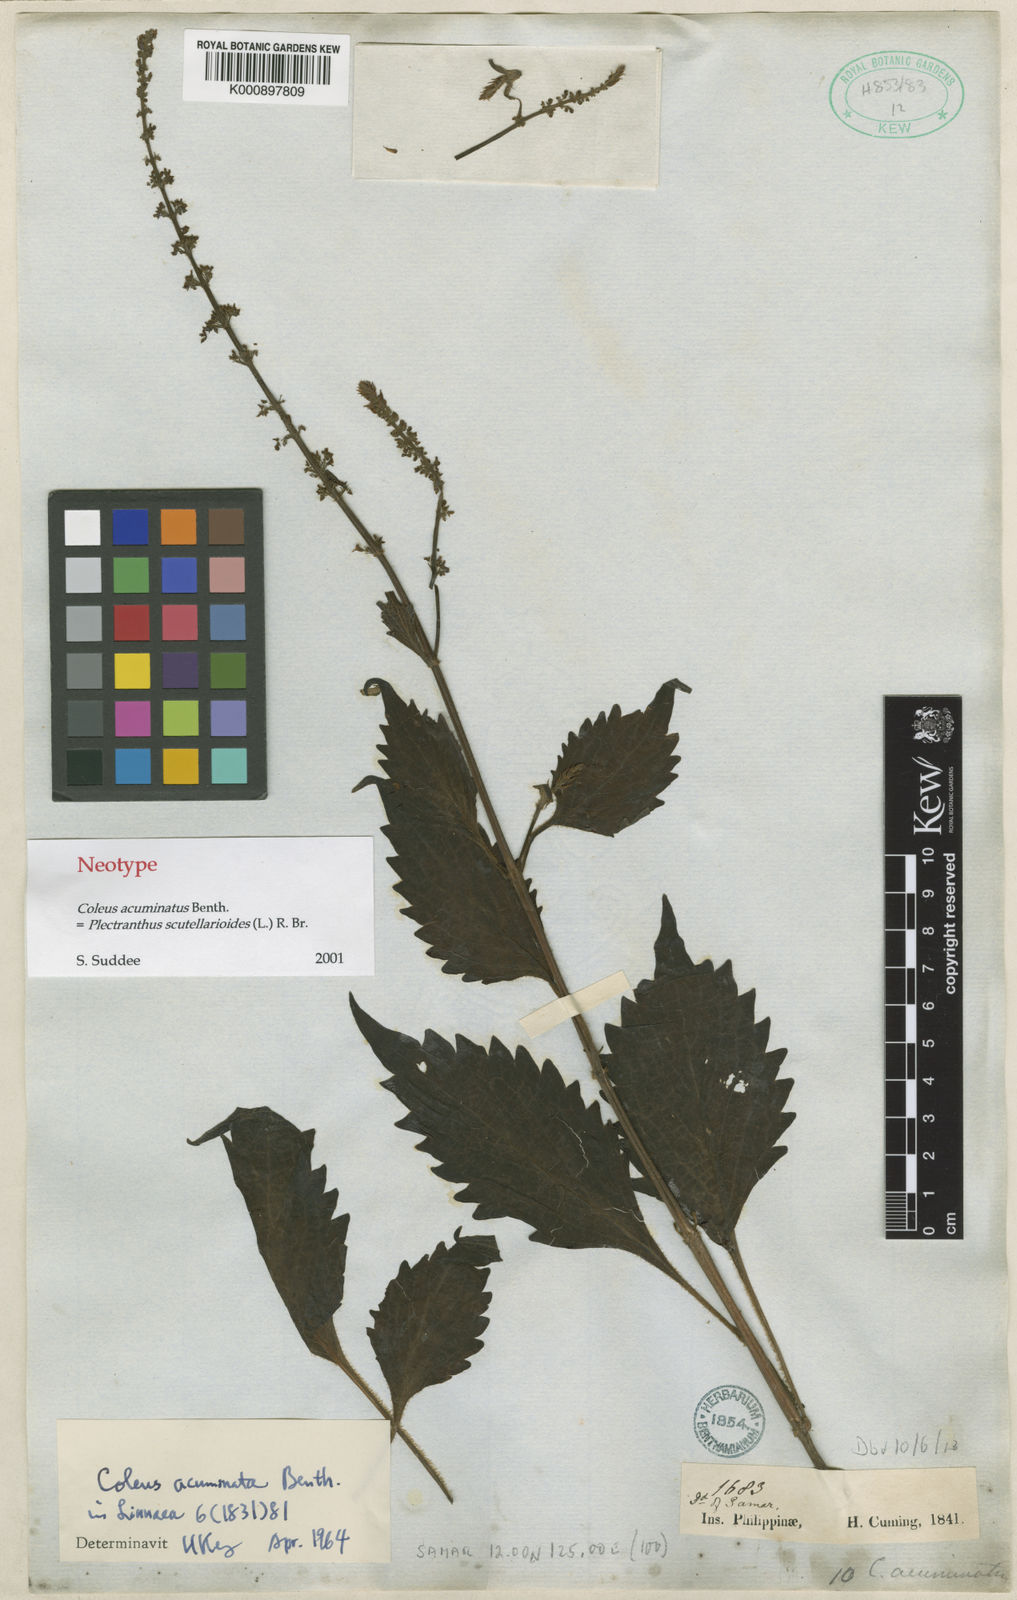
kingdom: Plantae
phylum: Tracheophyta
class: Magnoliopsida
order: Lamiales
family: Lamiaceae
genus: Coleus
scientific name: Coleus scutellarioides
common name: Coleus
